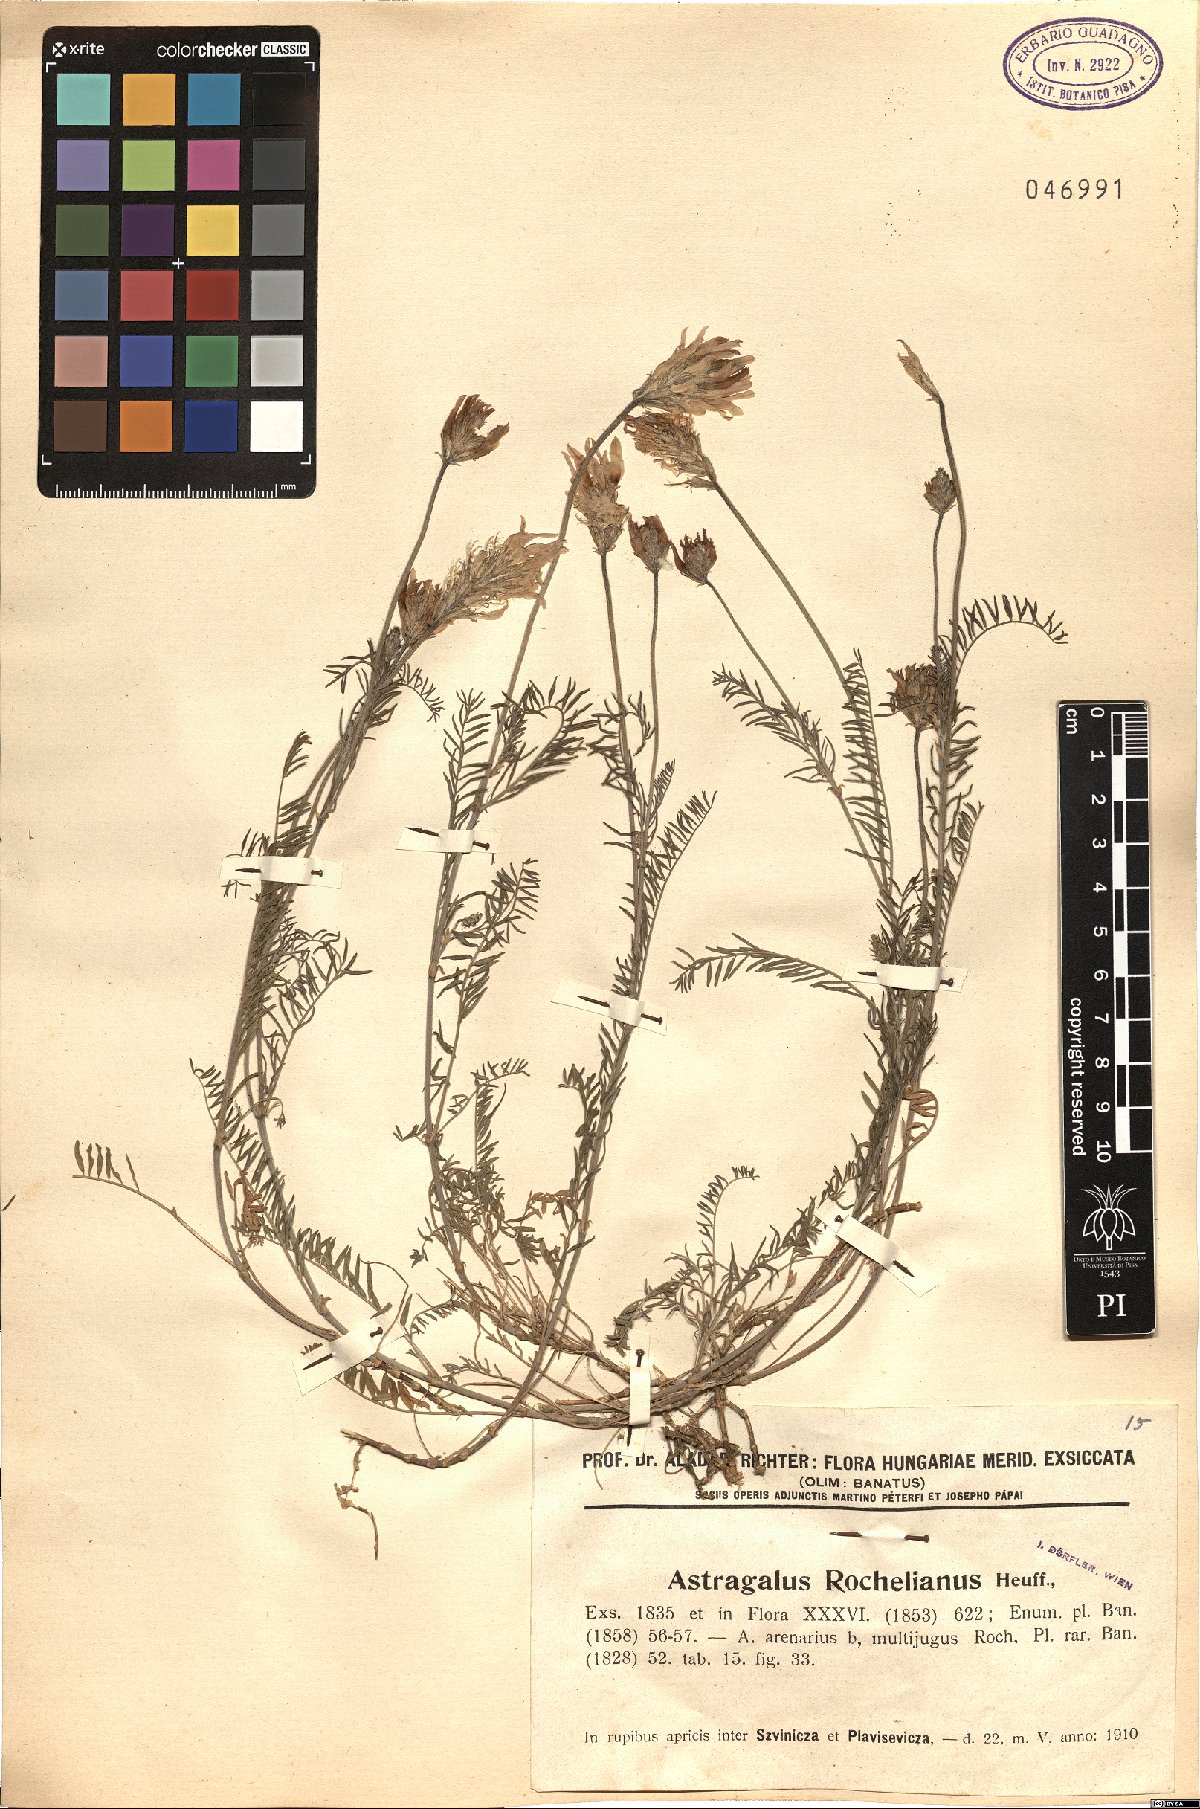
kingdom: Plantae
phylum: Tracheophyta
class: Magnoliopsida
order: Fabales
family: Fabaceae
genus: Astragalus
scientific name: Astragalus onobrychis
